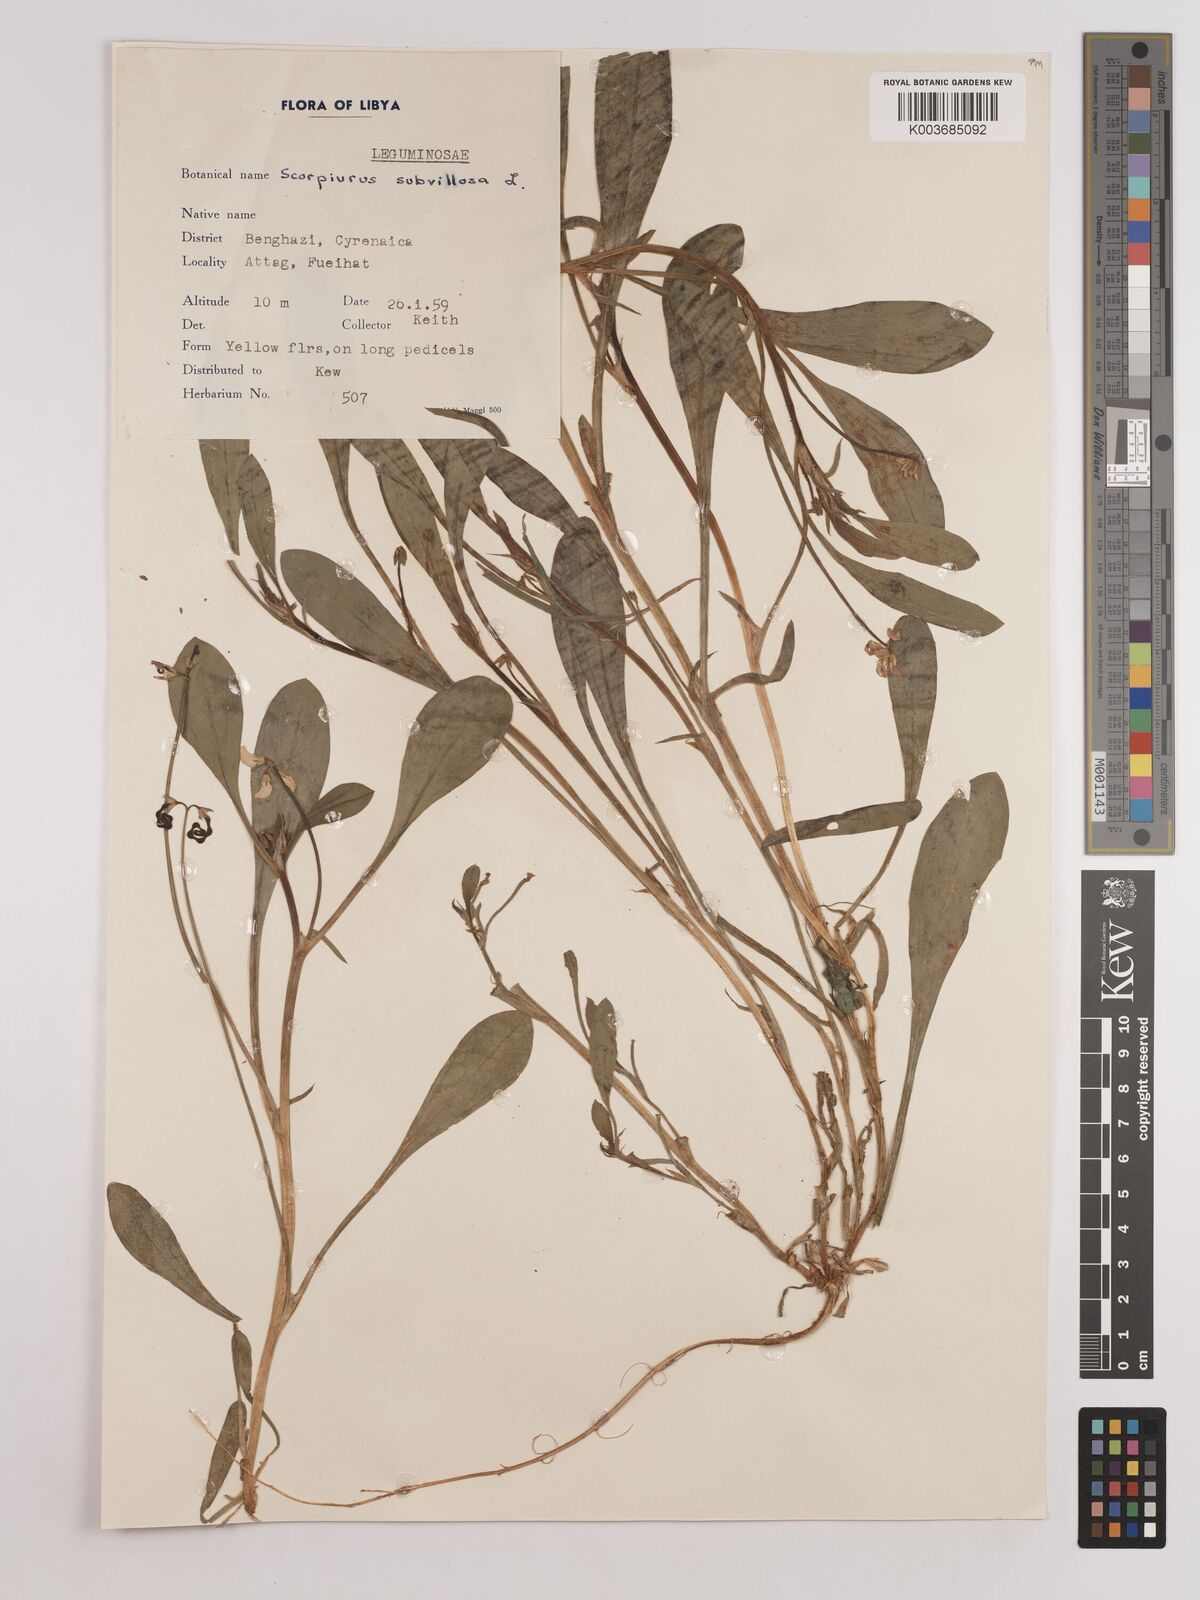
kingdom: Plantae
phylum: Tracheophyta
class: Magnoliopsida
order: Fabales
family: Fabaceae
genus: Scorpiurus
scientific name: Scorpiurus muricatus
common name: Caterpillar-plant
